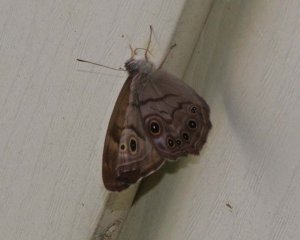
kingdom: Animalia
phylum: Arthropoda
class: Insecta
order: Lepidoptera
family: Nymphalidae
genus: Lethe
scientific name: Lethe anthedon
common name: Northern Pearly-Eye
